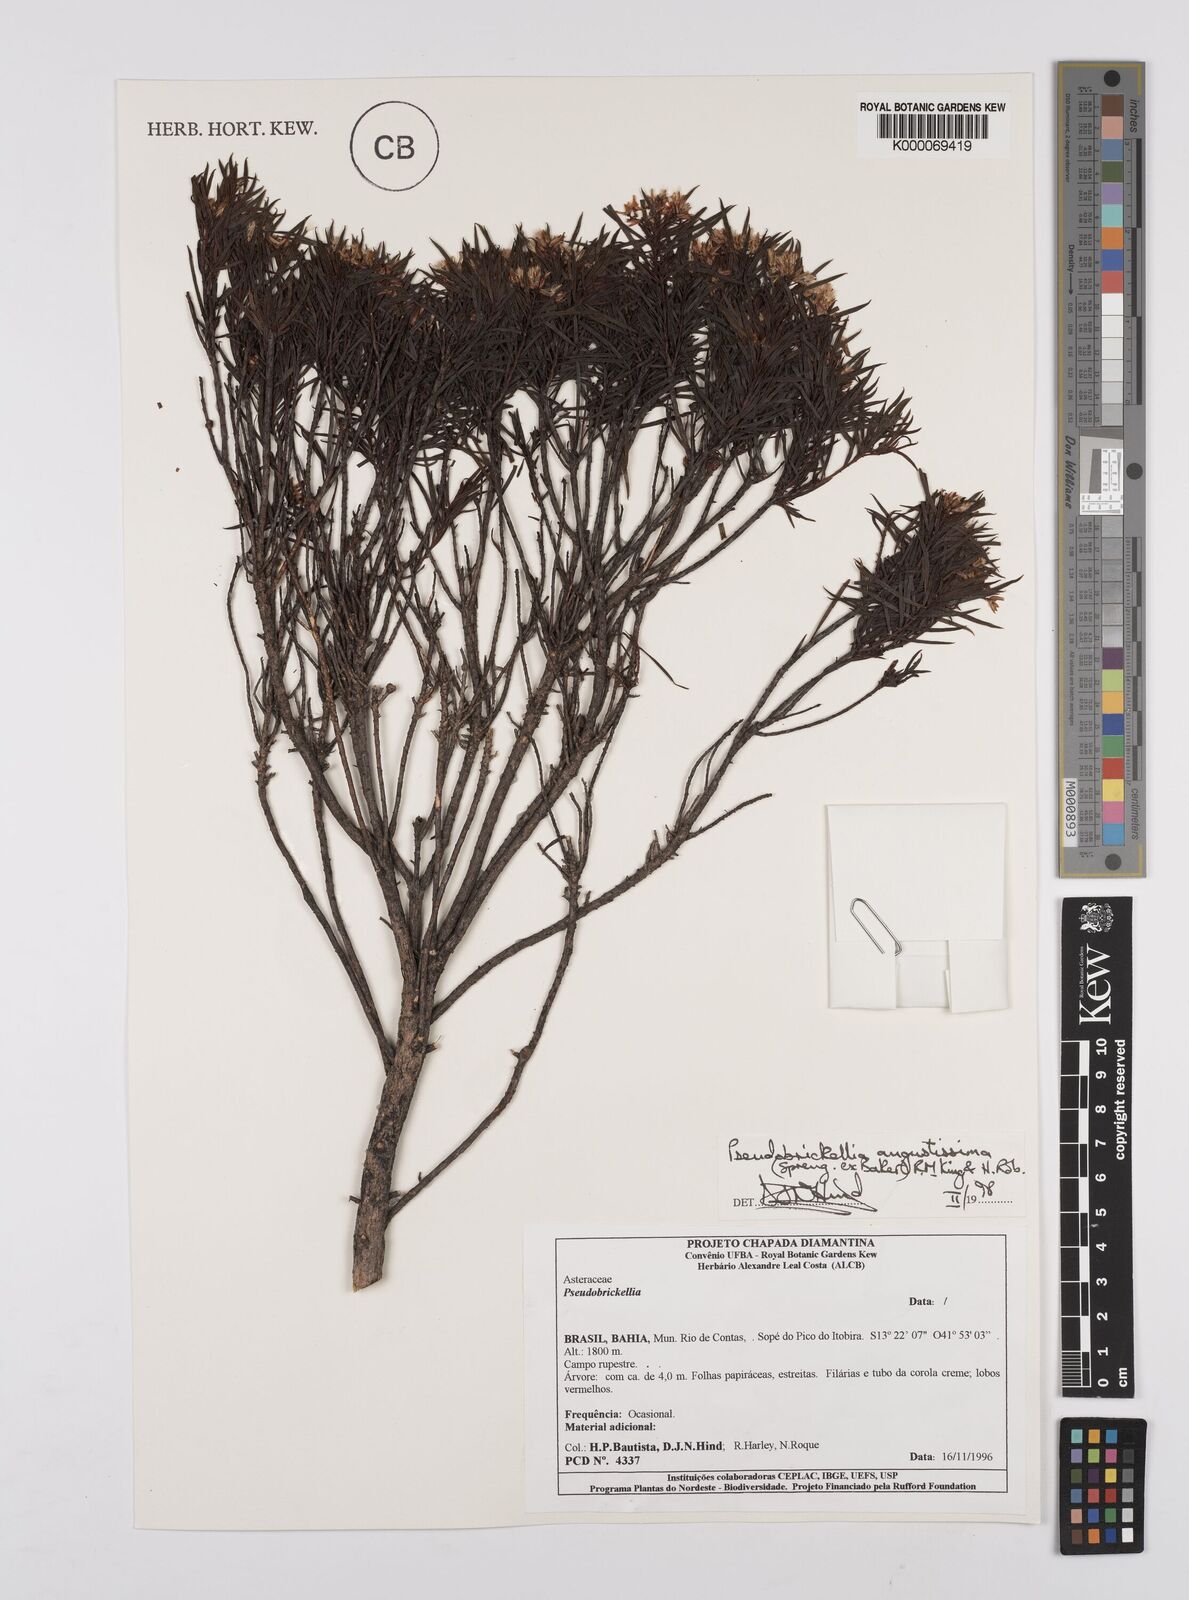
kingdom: Plantae
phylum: Tracheophyta
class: Magnoliopsida
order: Asterales
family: Asteraceae
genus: Pseudobrickellia
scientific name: Pseudobrickellia angustissima
